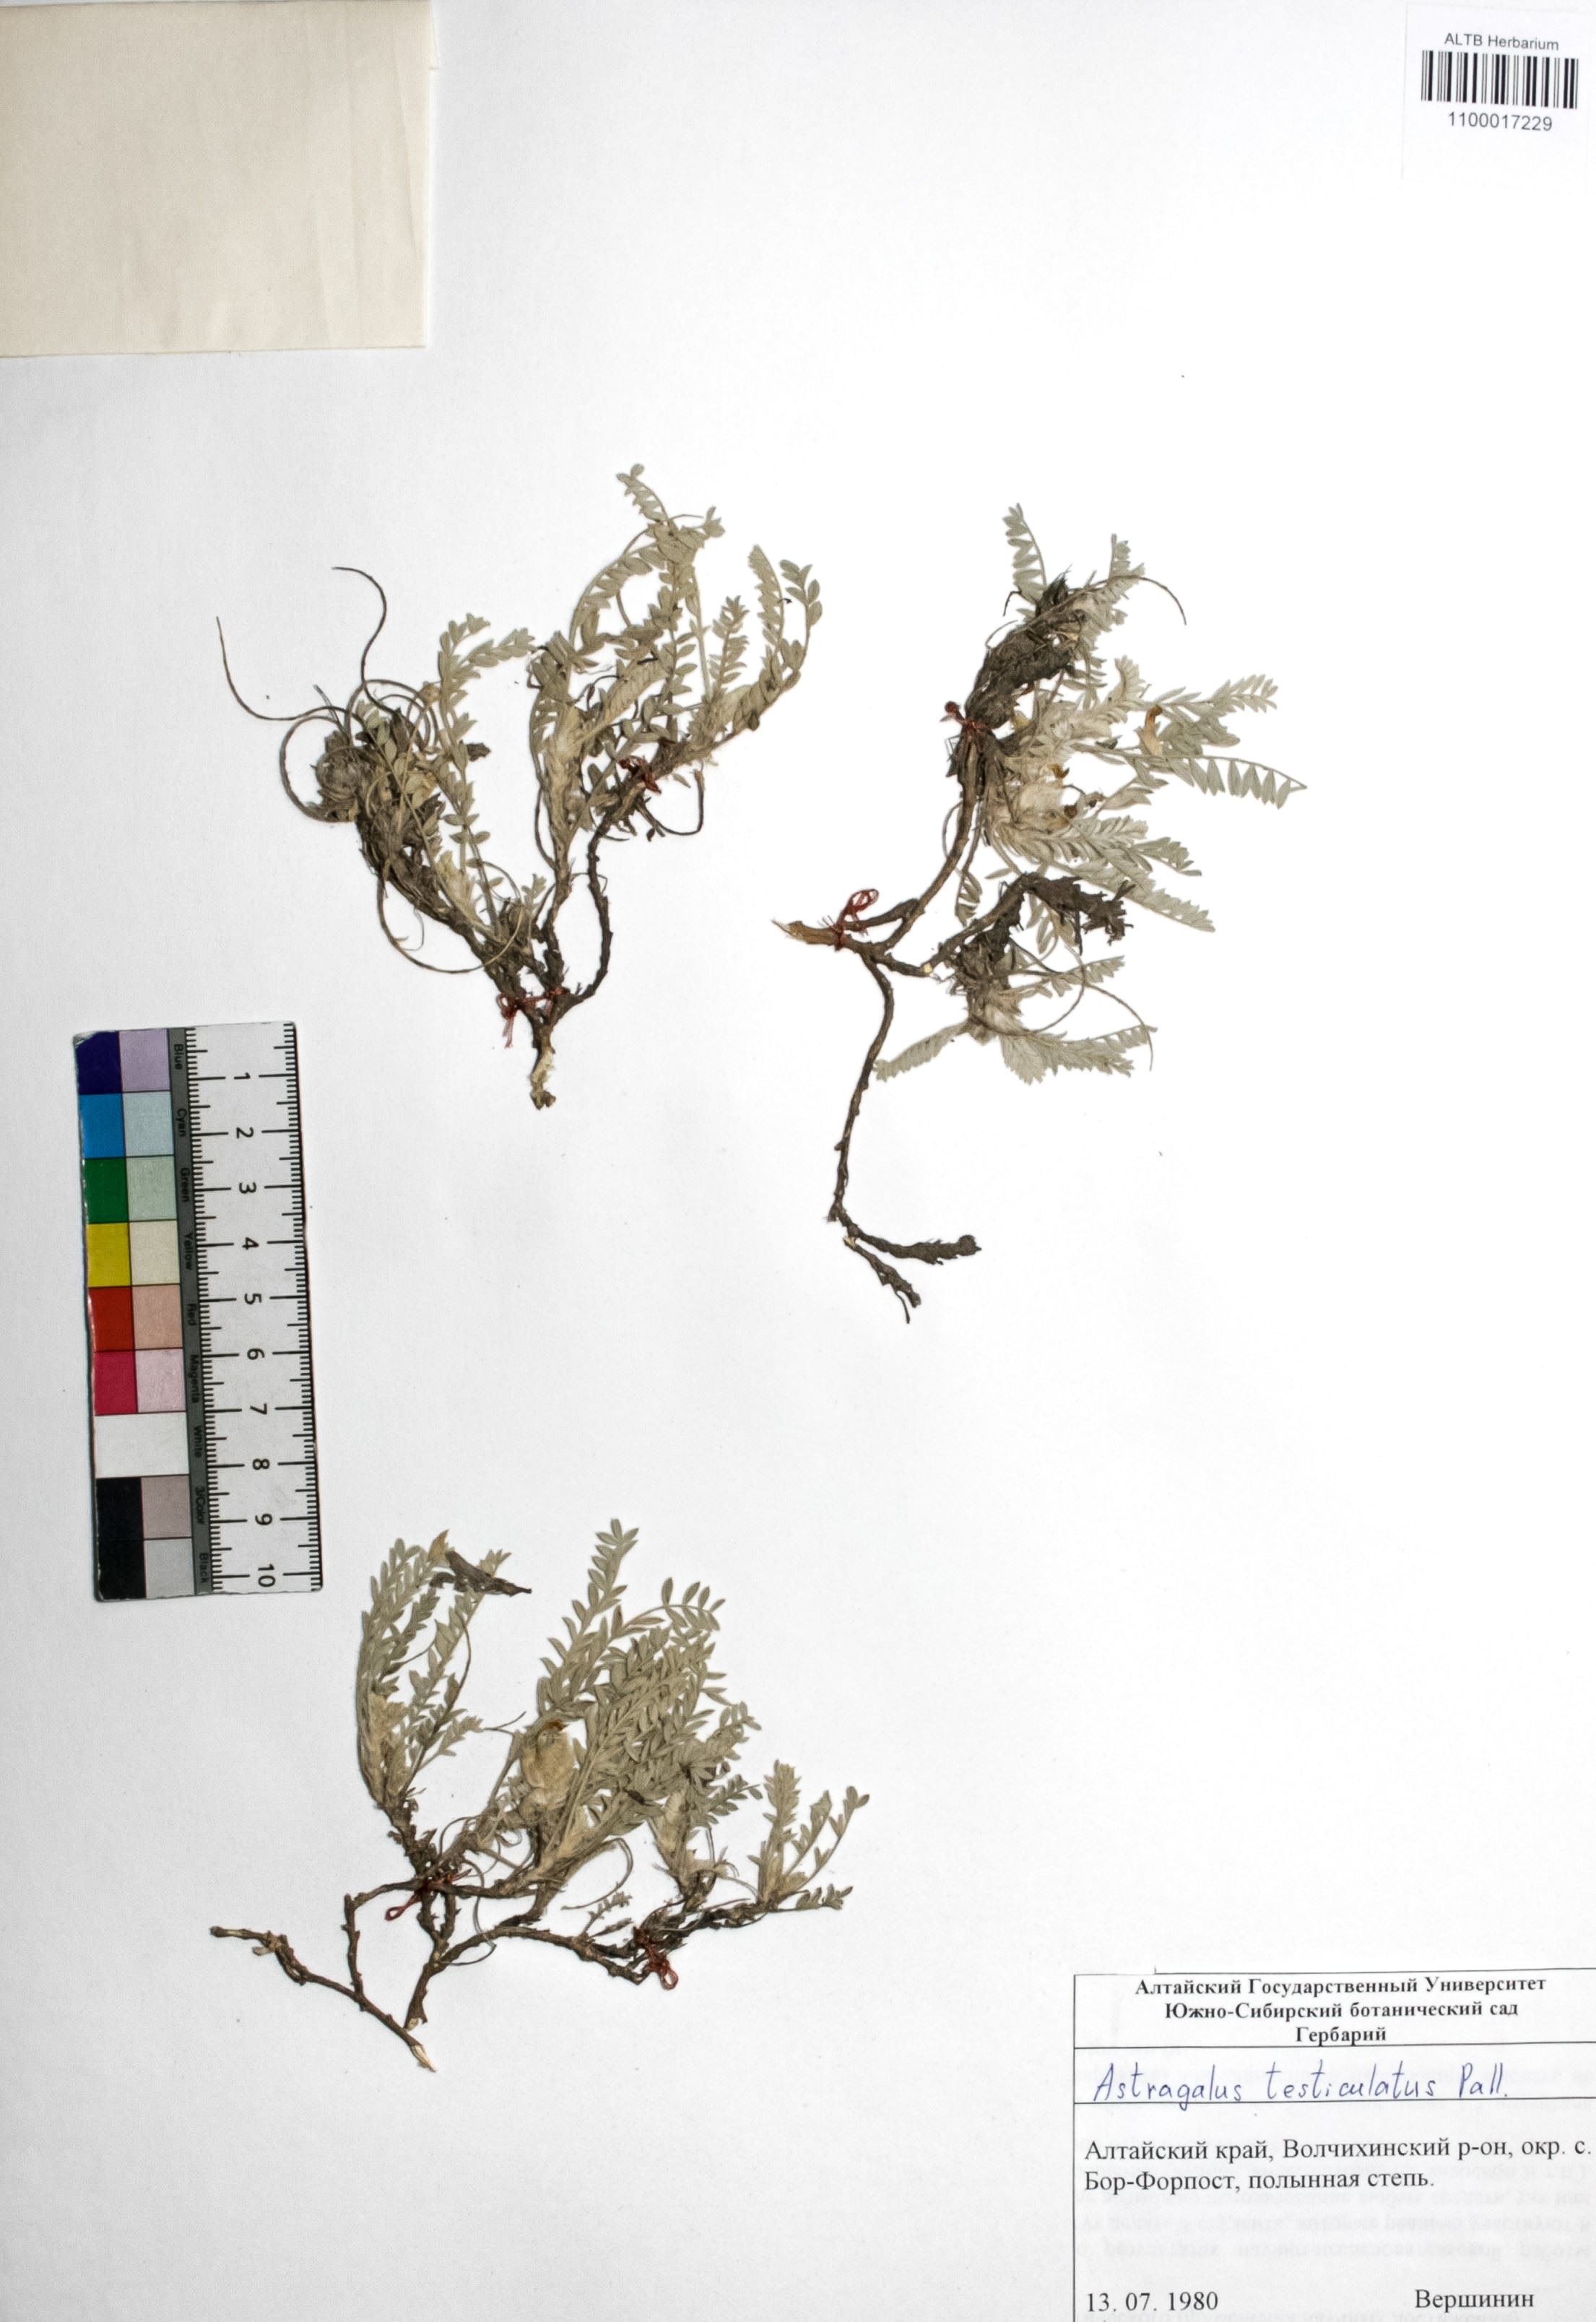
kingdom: Plantae
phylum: Tracheophyta
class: Magnoliopsida
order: Fabales
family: Fabaceae
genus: Astragalus
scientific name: Astragalus testiculatus
